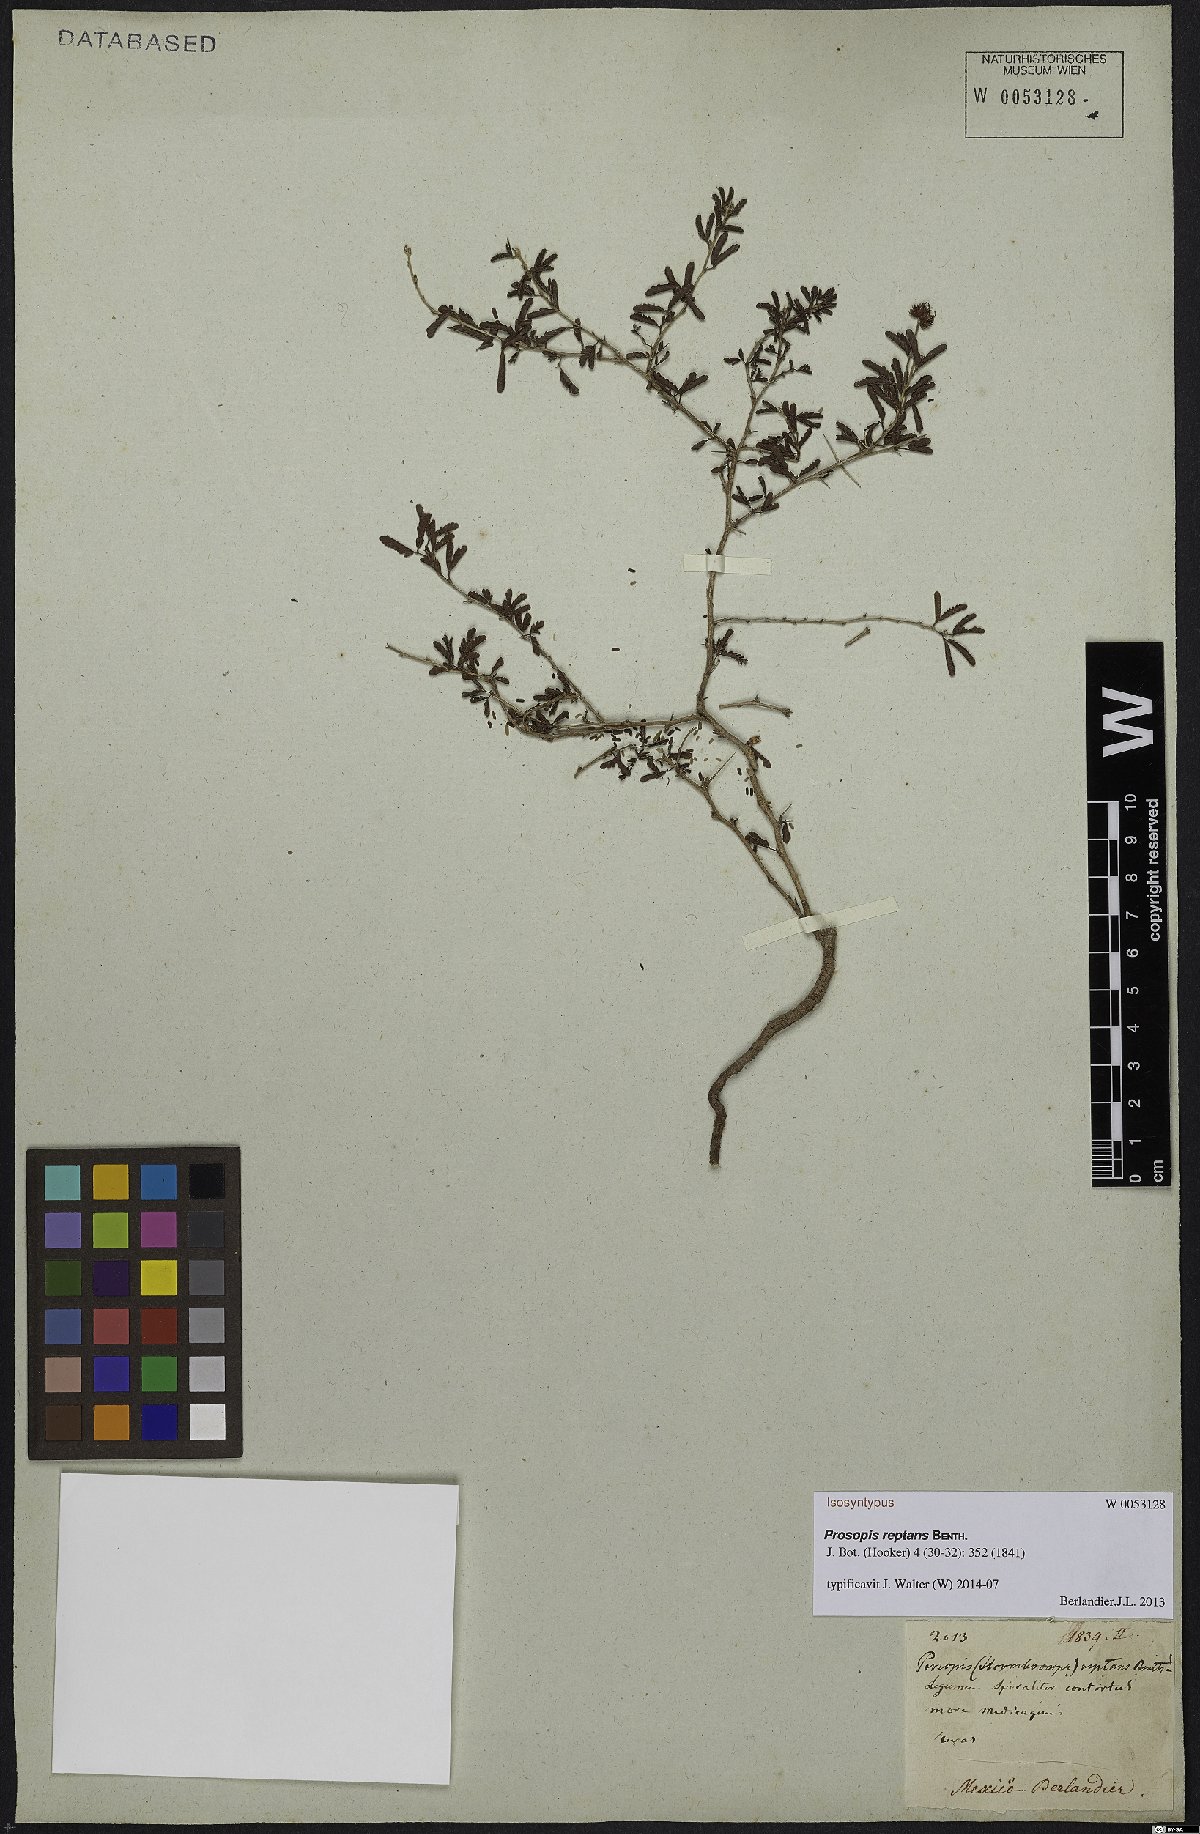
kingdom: Plantae
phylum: Tracheophyta
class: Magnoliopsida
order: Fabales
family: Fabaceae
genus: Prosopis
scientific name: Prosopis reptans
